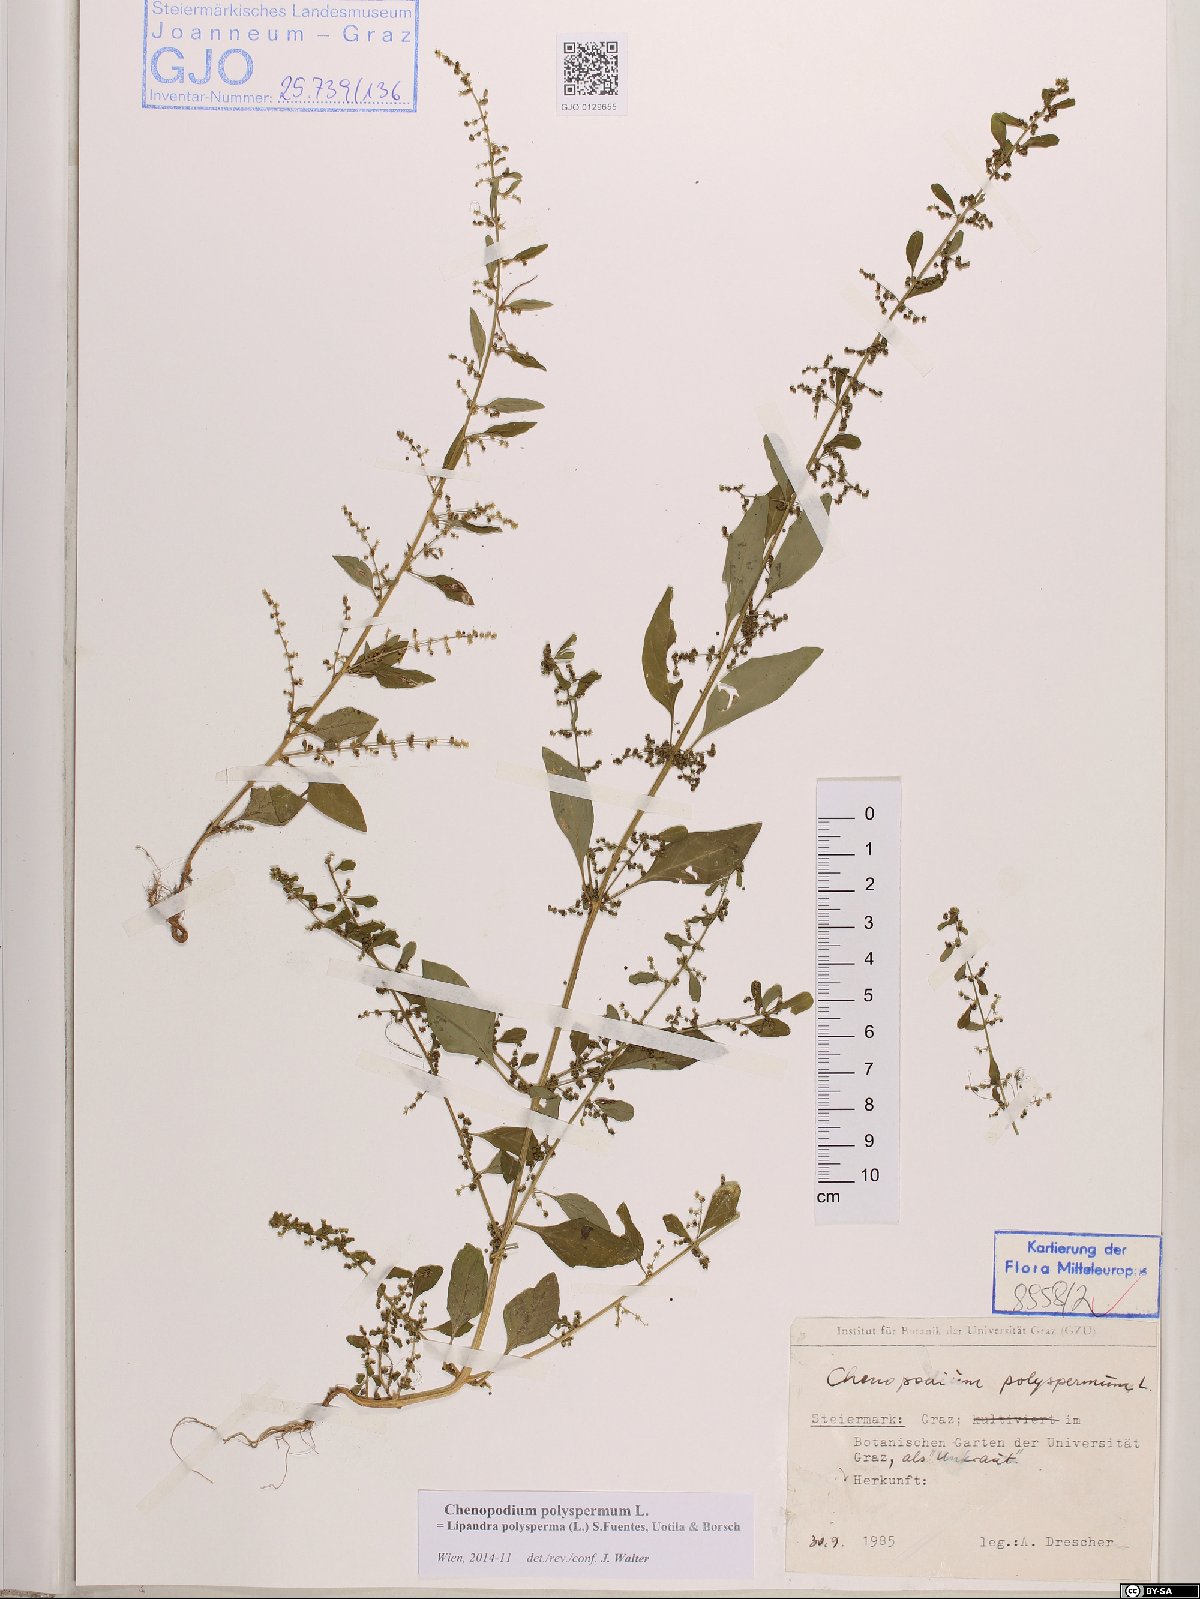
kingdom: Plantae
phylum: Tracheophyta
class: Magnoliopsida
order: Caryophyllales
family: Amaranthaceae
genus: Lipandra
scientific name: Lipandra polysperma
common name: Many-seed goosefoot
